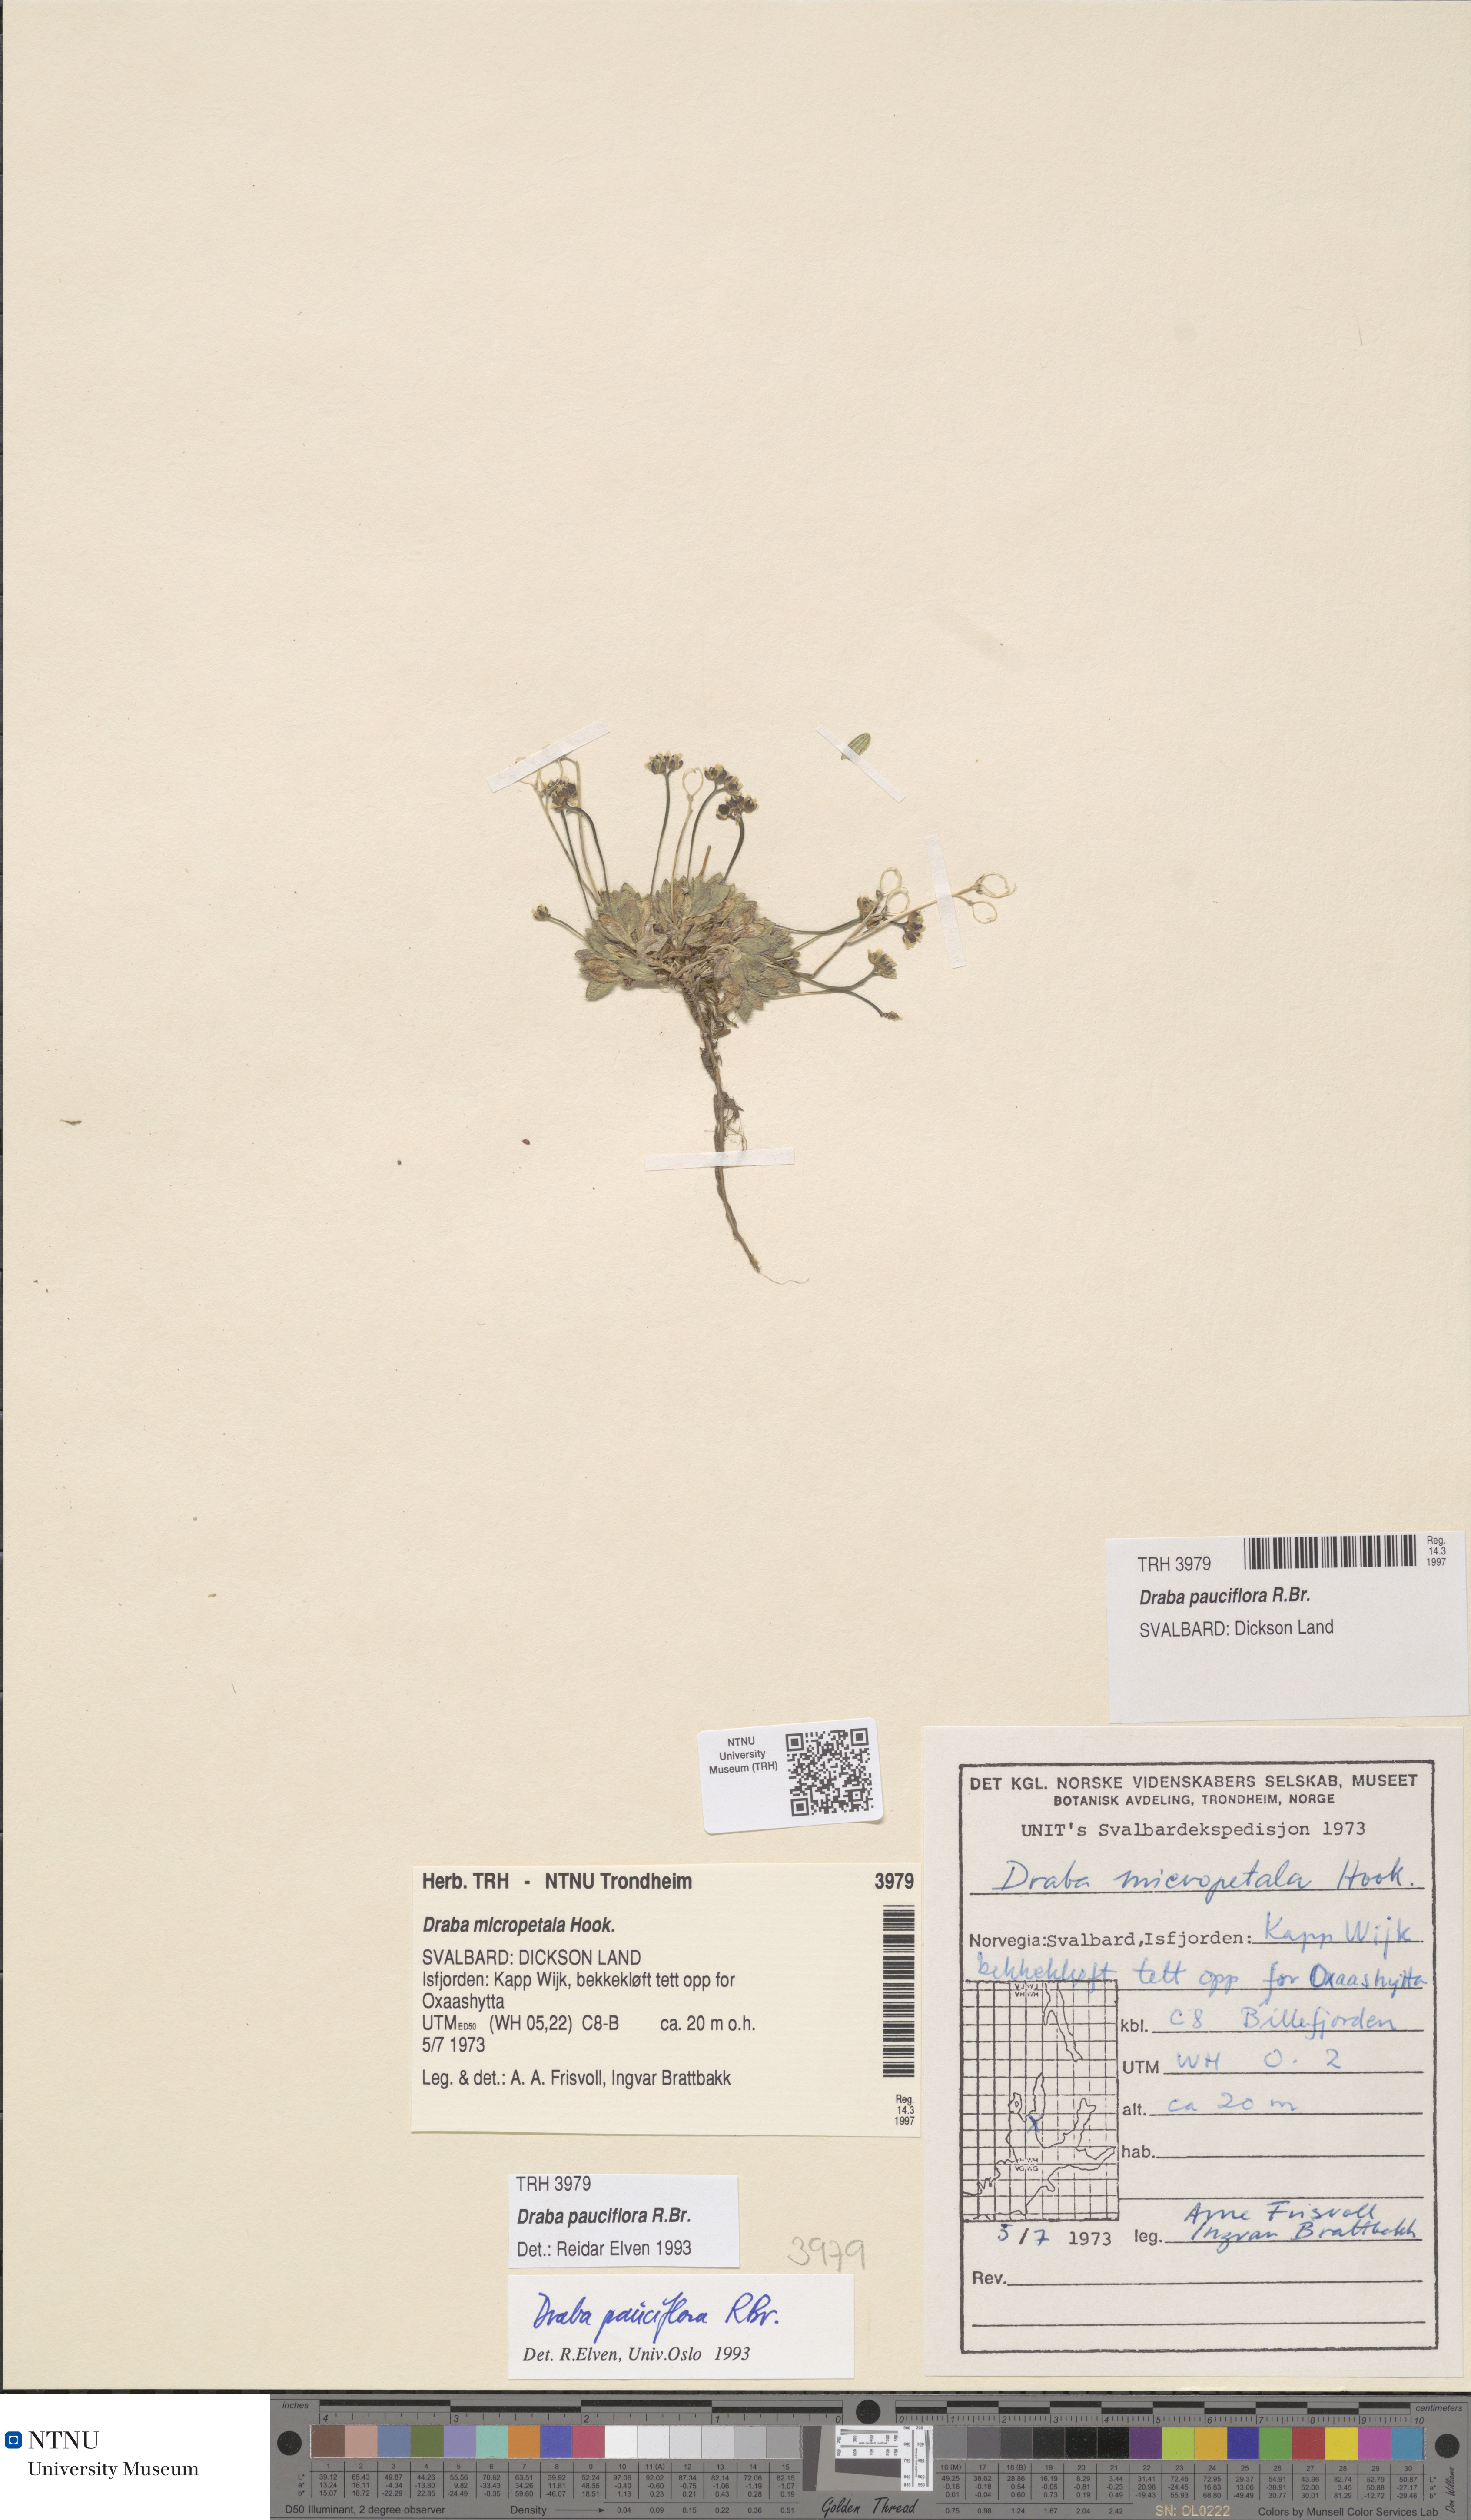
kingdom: Plantae
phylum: Tracheophyta
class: Magnoliopsida
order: Brassicales
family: Brassicaceae
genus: Draba
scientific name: Draba pauciflora
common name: Few-flowered draba
